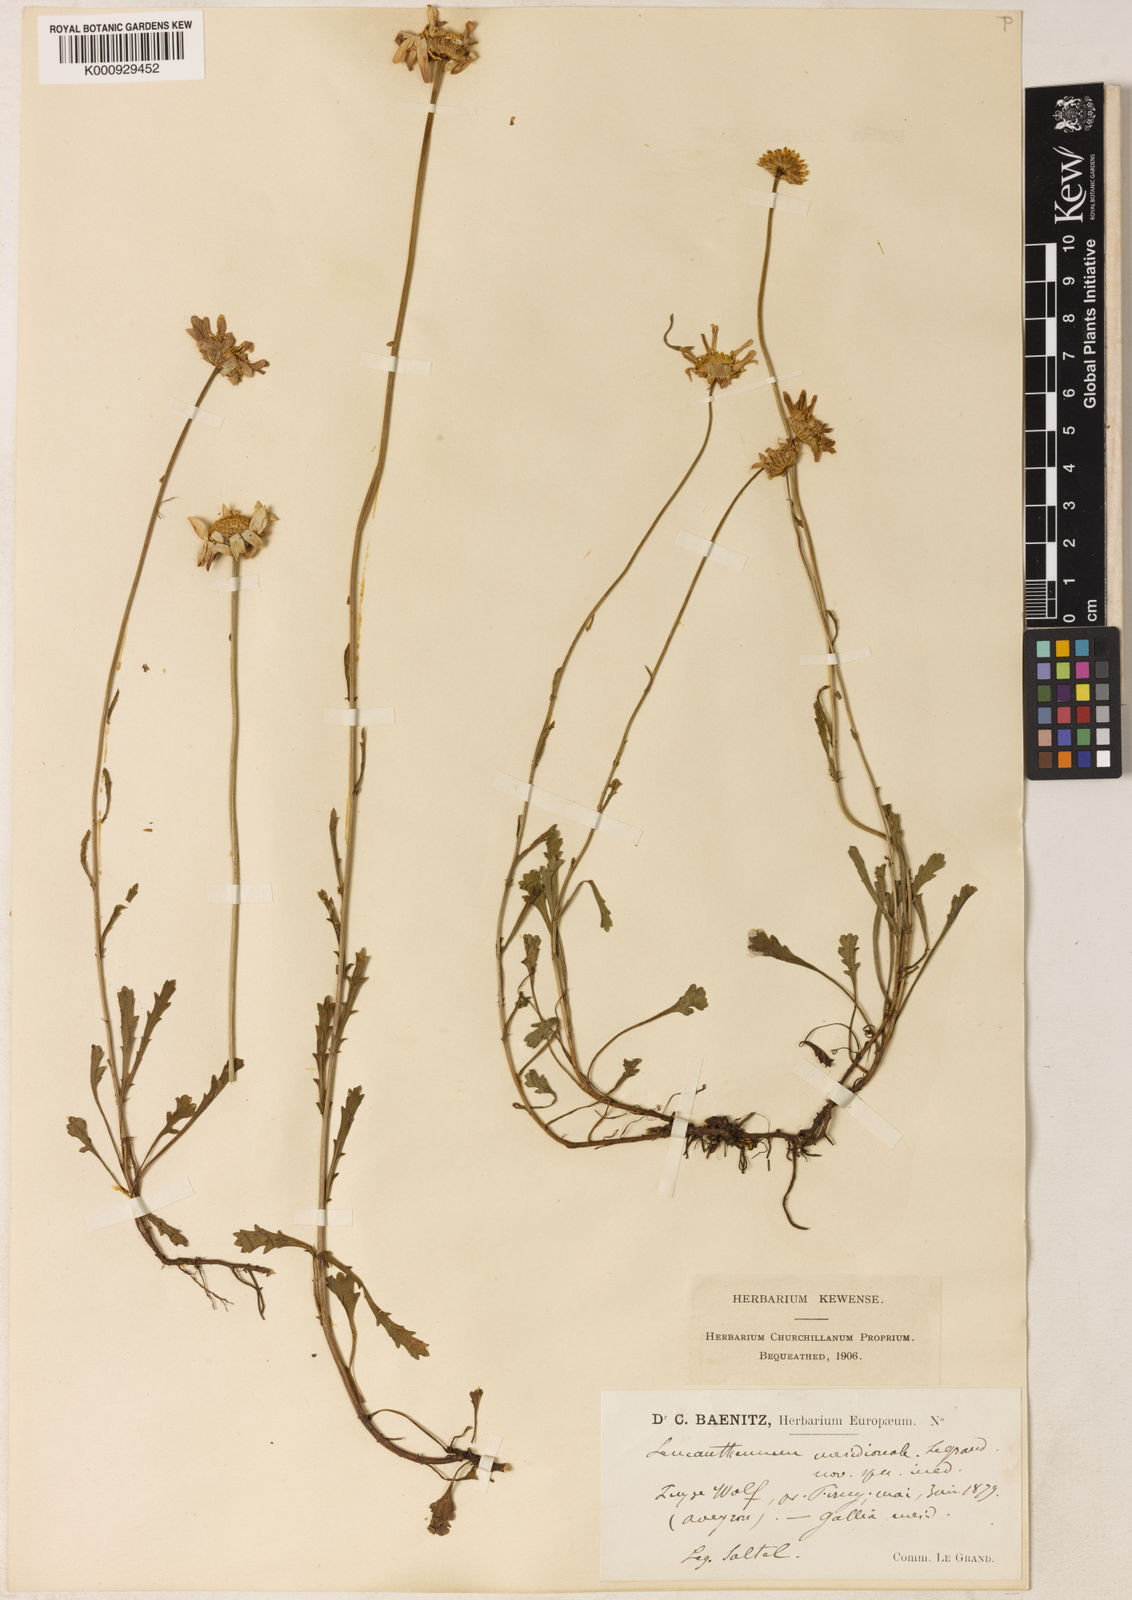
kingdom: Plantae
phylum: Tracheophyta
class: Magnoliopsida
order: Asterales
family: Asteraceae
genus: Leucanthemum
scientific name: Leucanthemum meridionale
